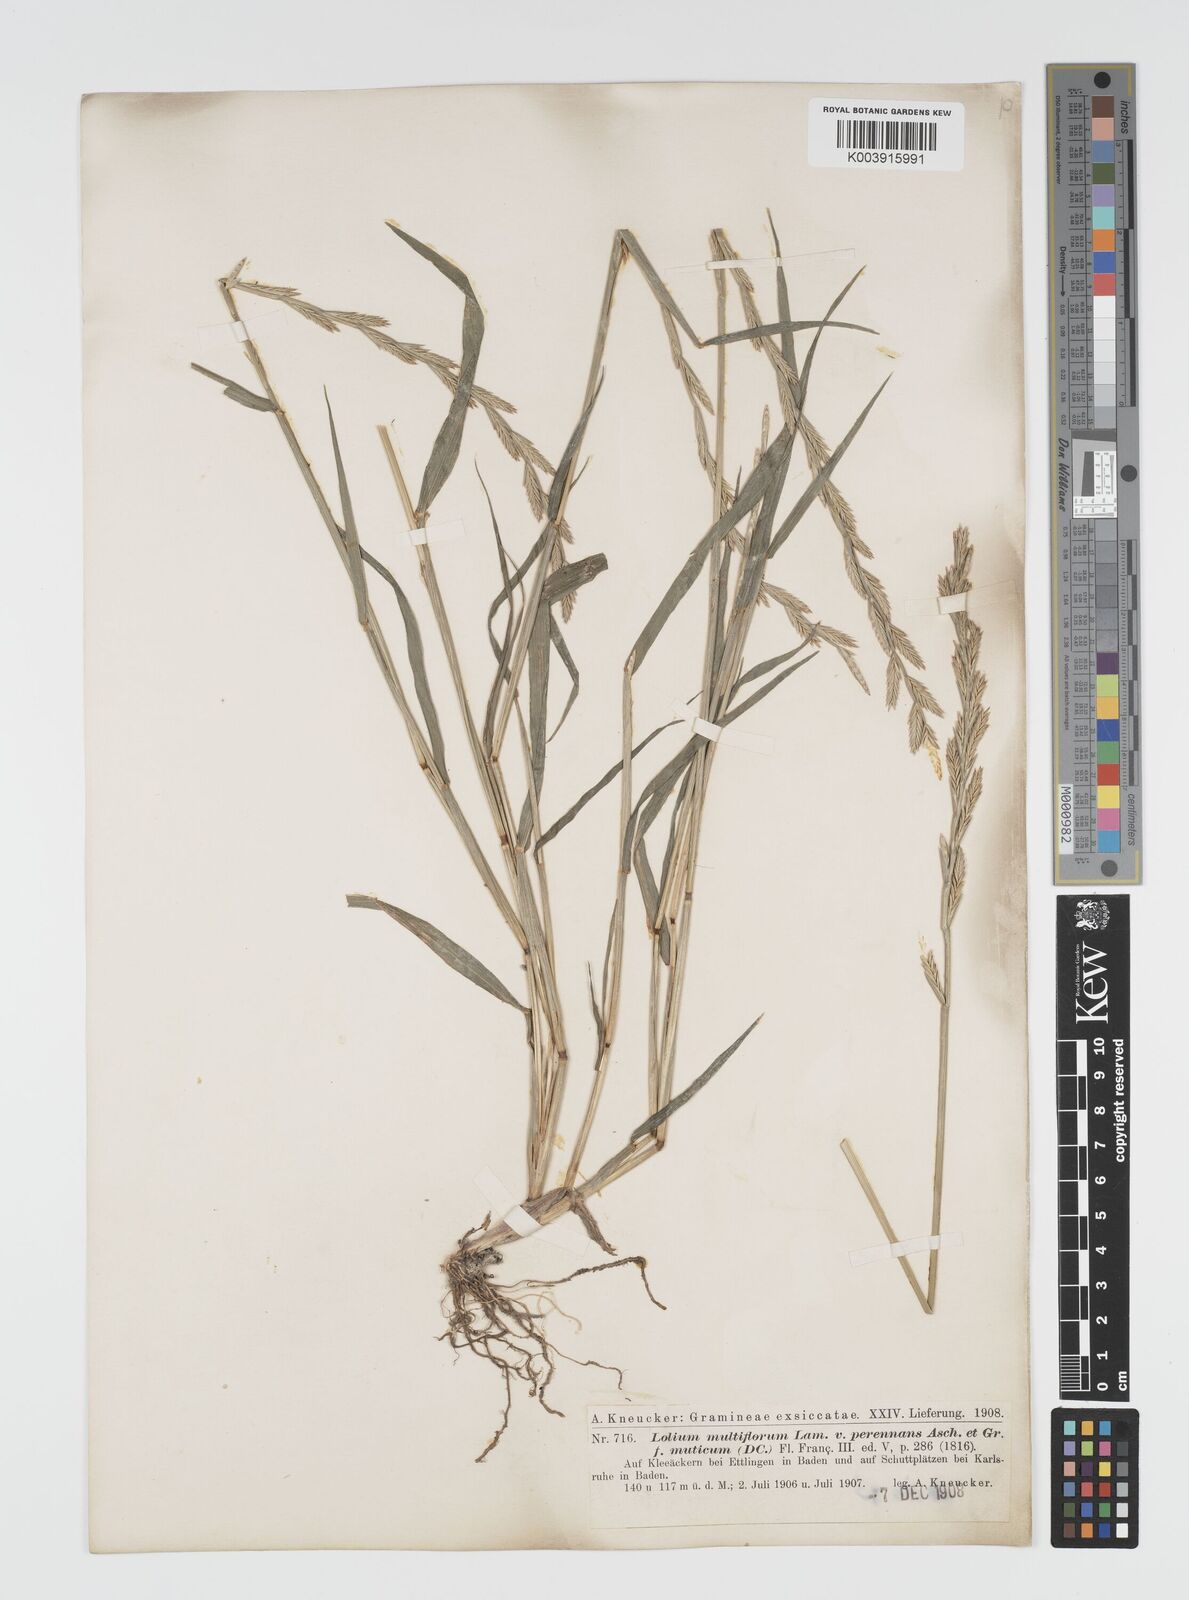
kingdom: Plantae
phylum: Tracheophyta
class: Liliopsida
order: Poales
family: Poaceae
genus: Lolium
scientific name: Lolium multiflorum
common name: Annual ryegrass
